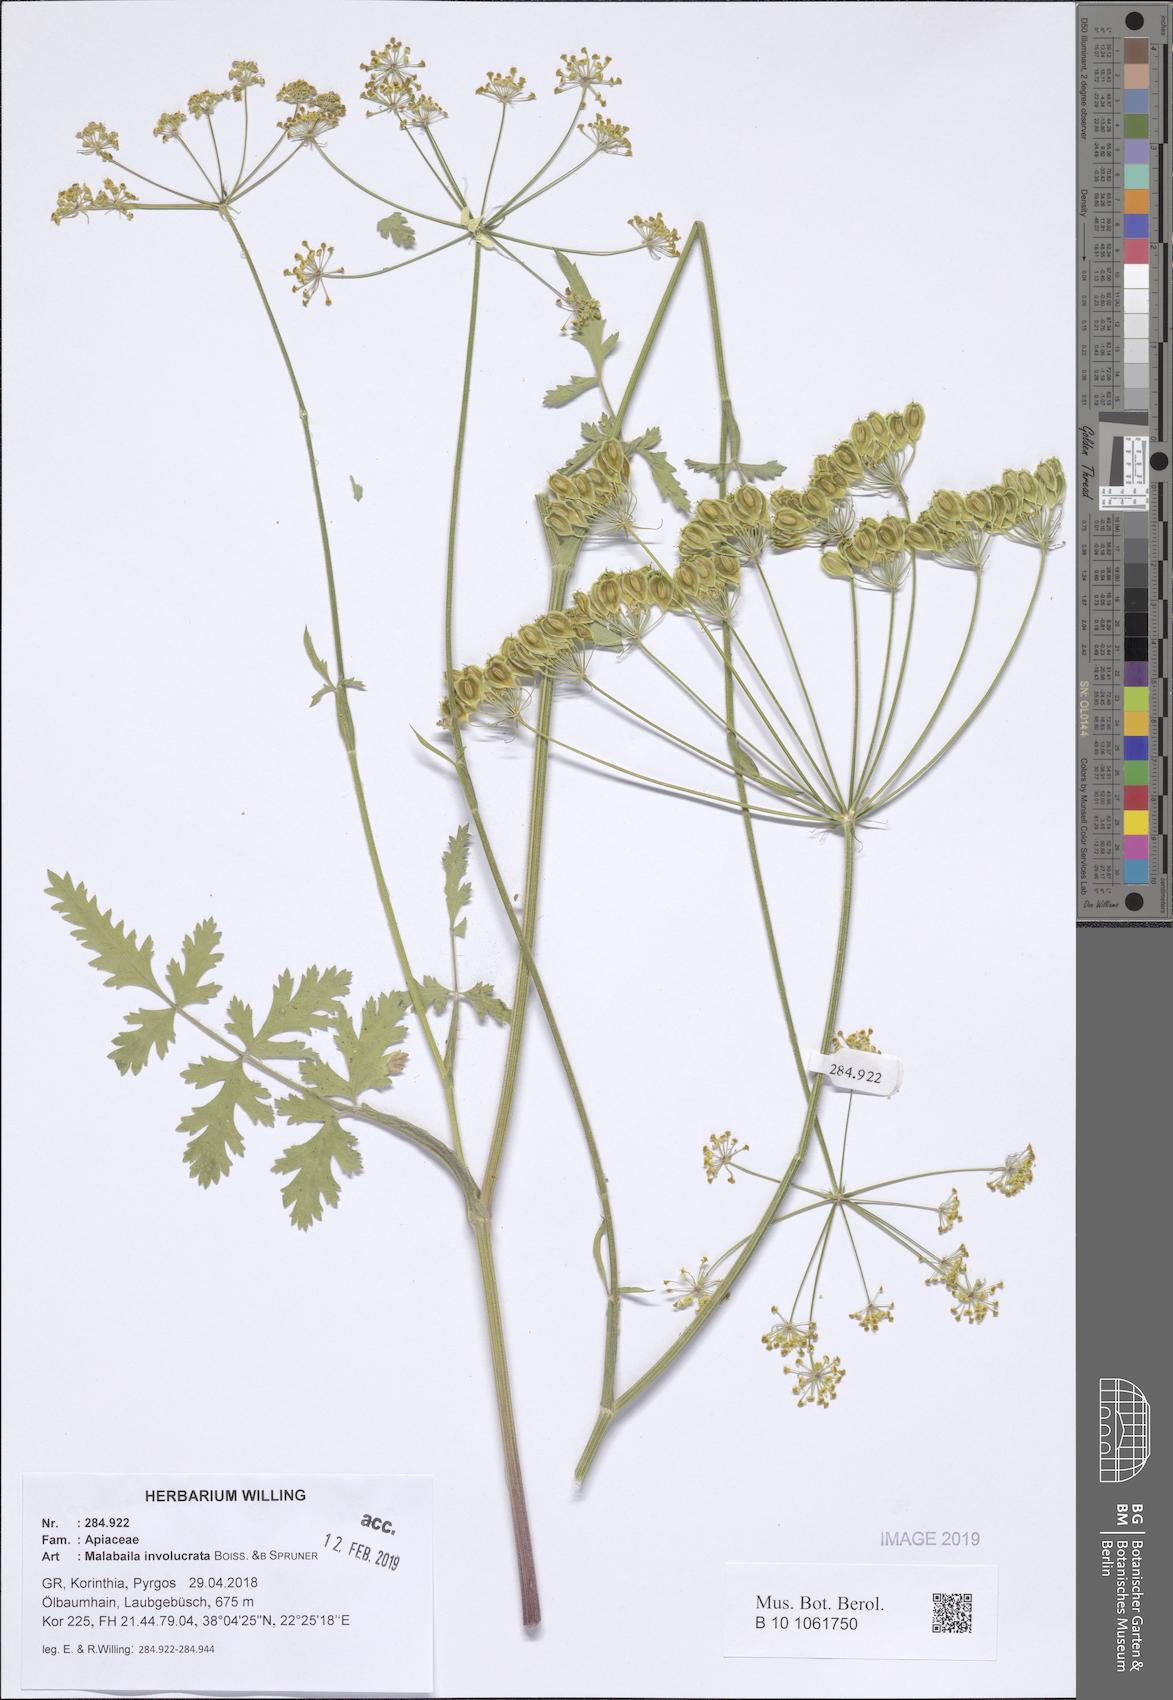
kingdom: Plantae
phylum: Tracheophyta
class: Magnoliopsida
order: Apiales
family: Apiaceae
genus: Leiotulus
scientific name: Leiotulus involucratus
